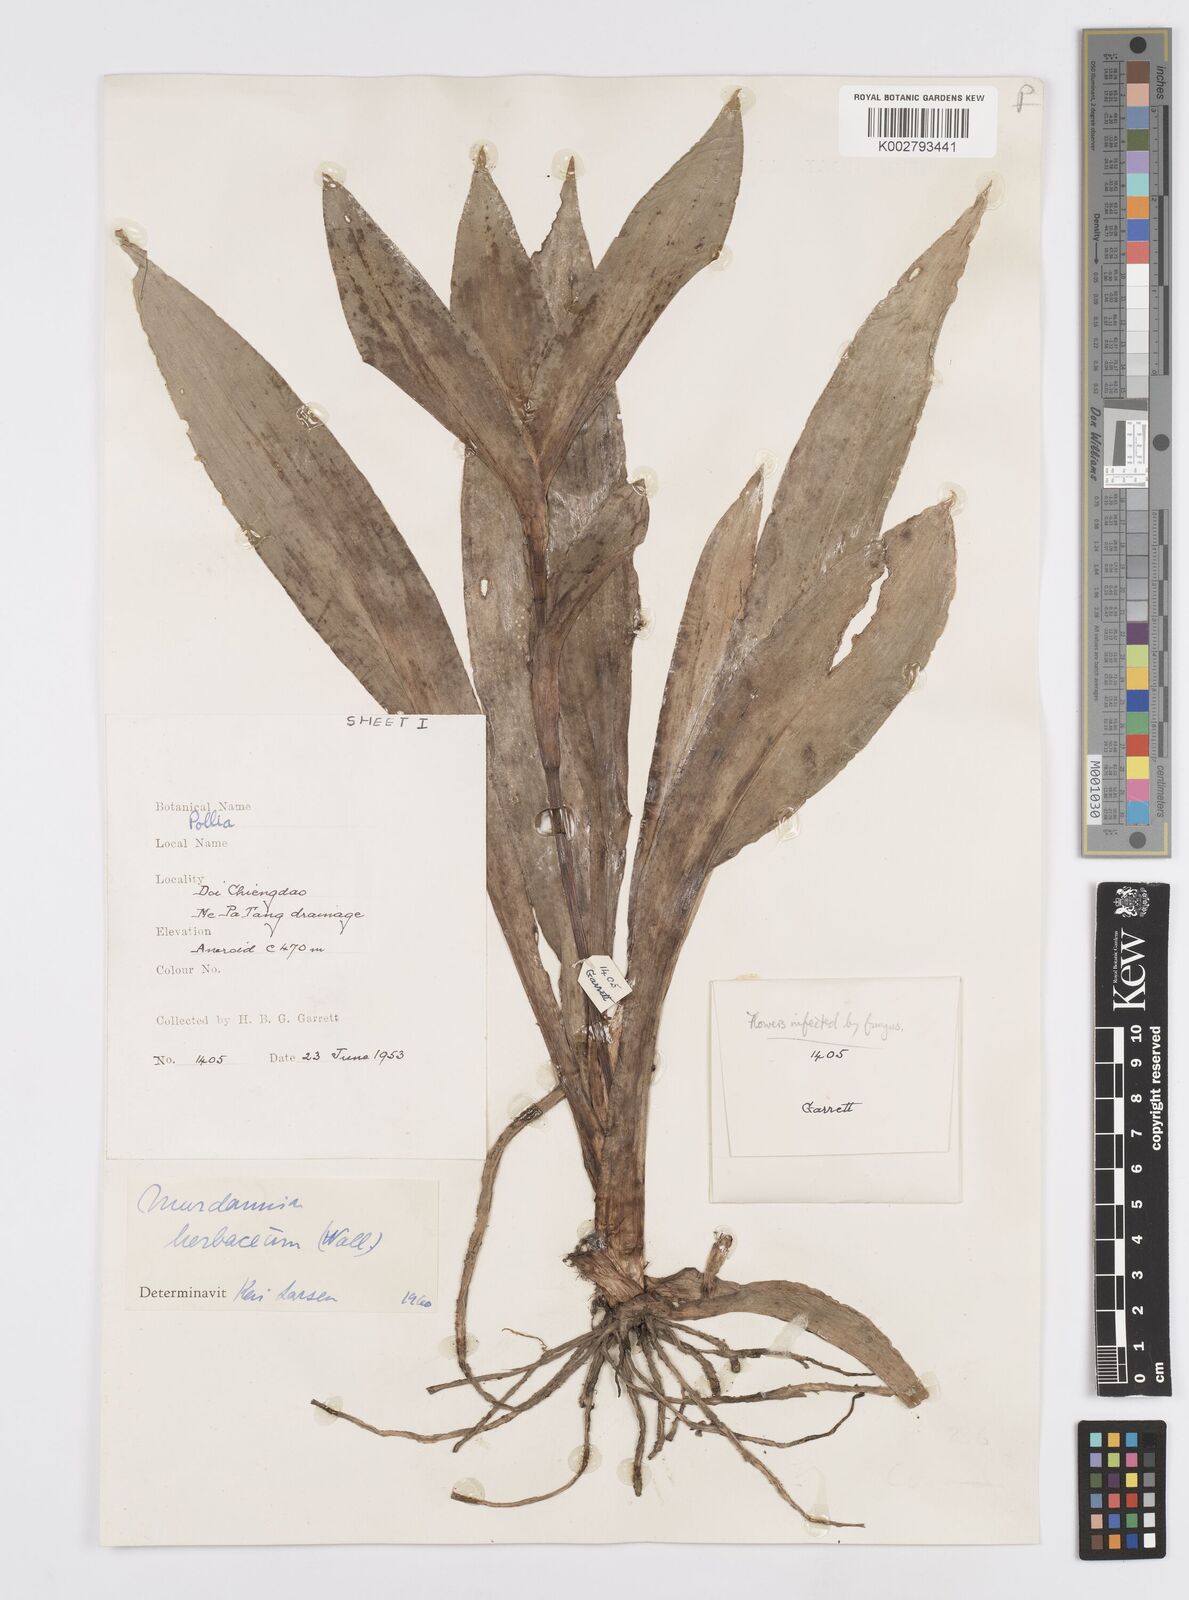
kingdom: Plantae
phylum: Tracheophyta
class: Liliopsida
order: Commelinales
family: Commelinaceae
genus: Murdannia
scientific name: Murdannia
